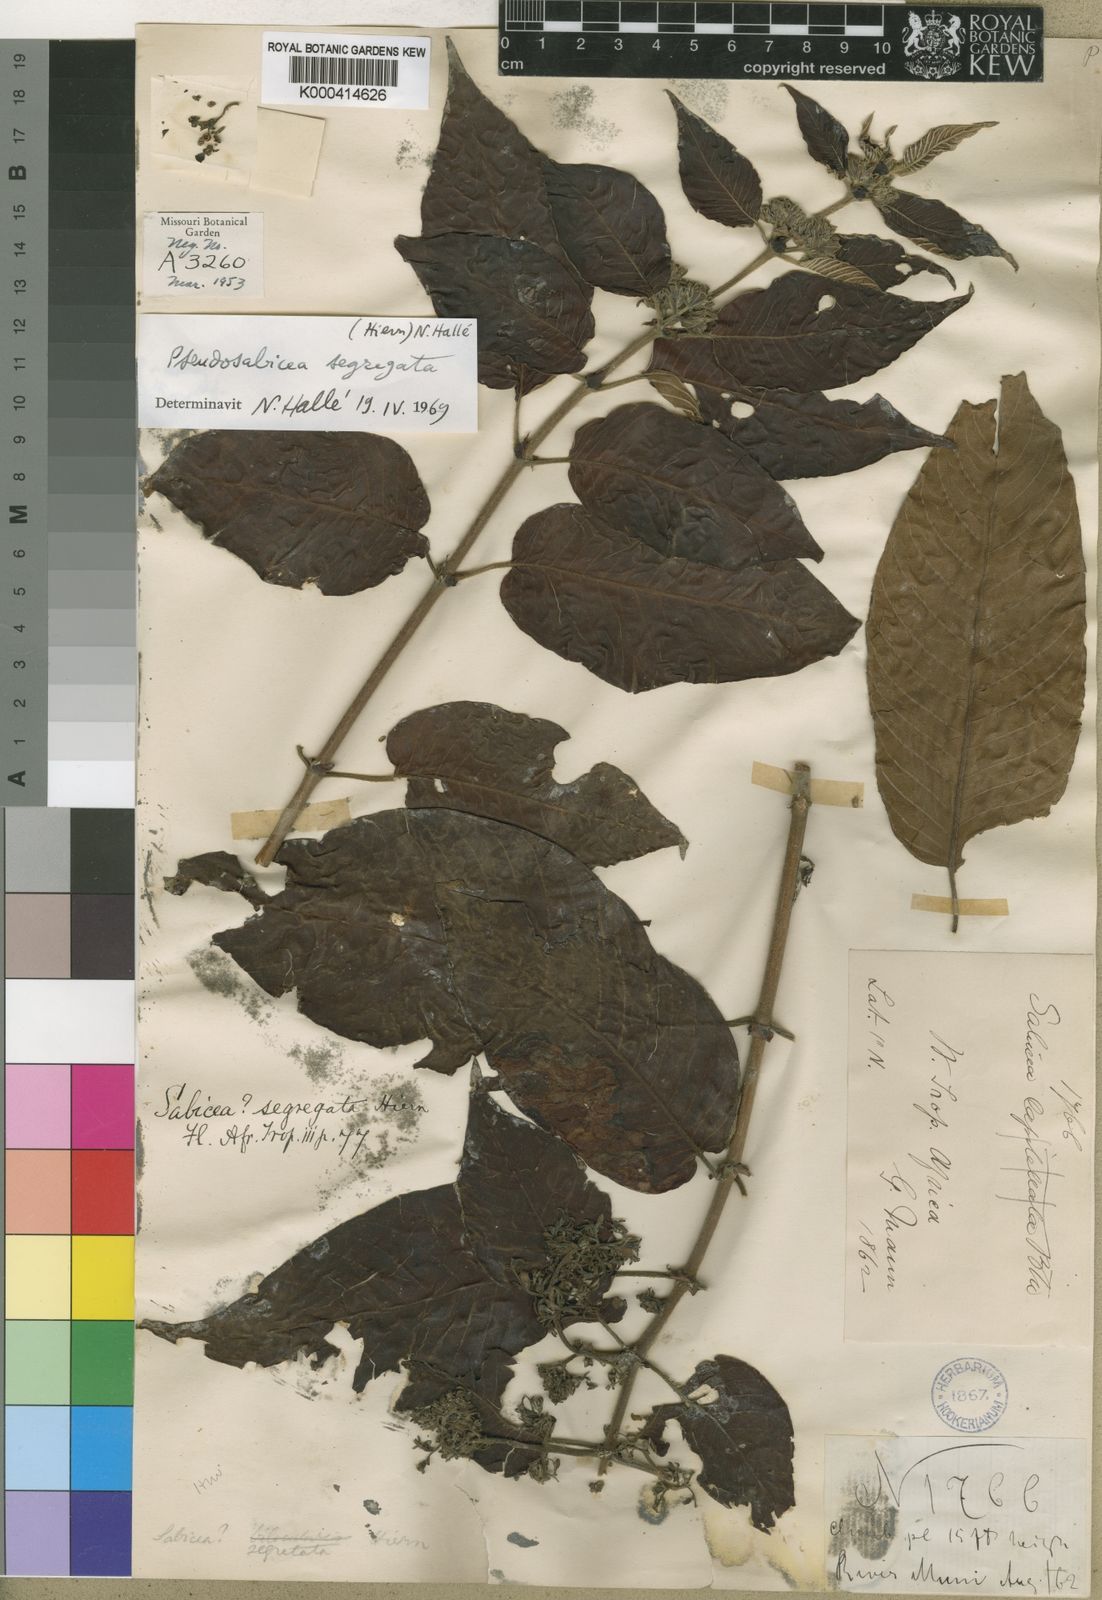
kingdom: Plantae
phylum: Tracheophyta
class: Magnoliopsida
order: Gentianales
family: Rubiaceae
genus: Sabicea
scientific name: Sabicea segregata
